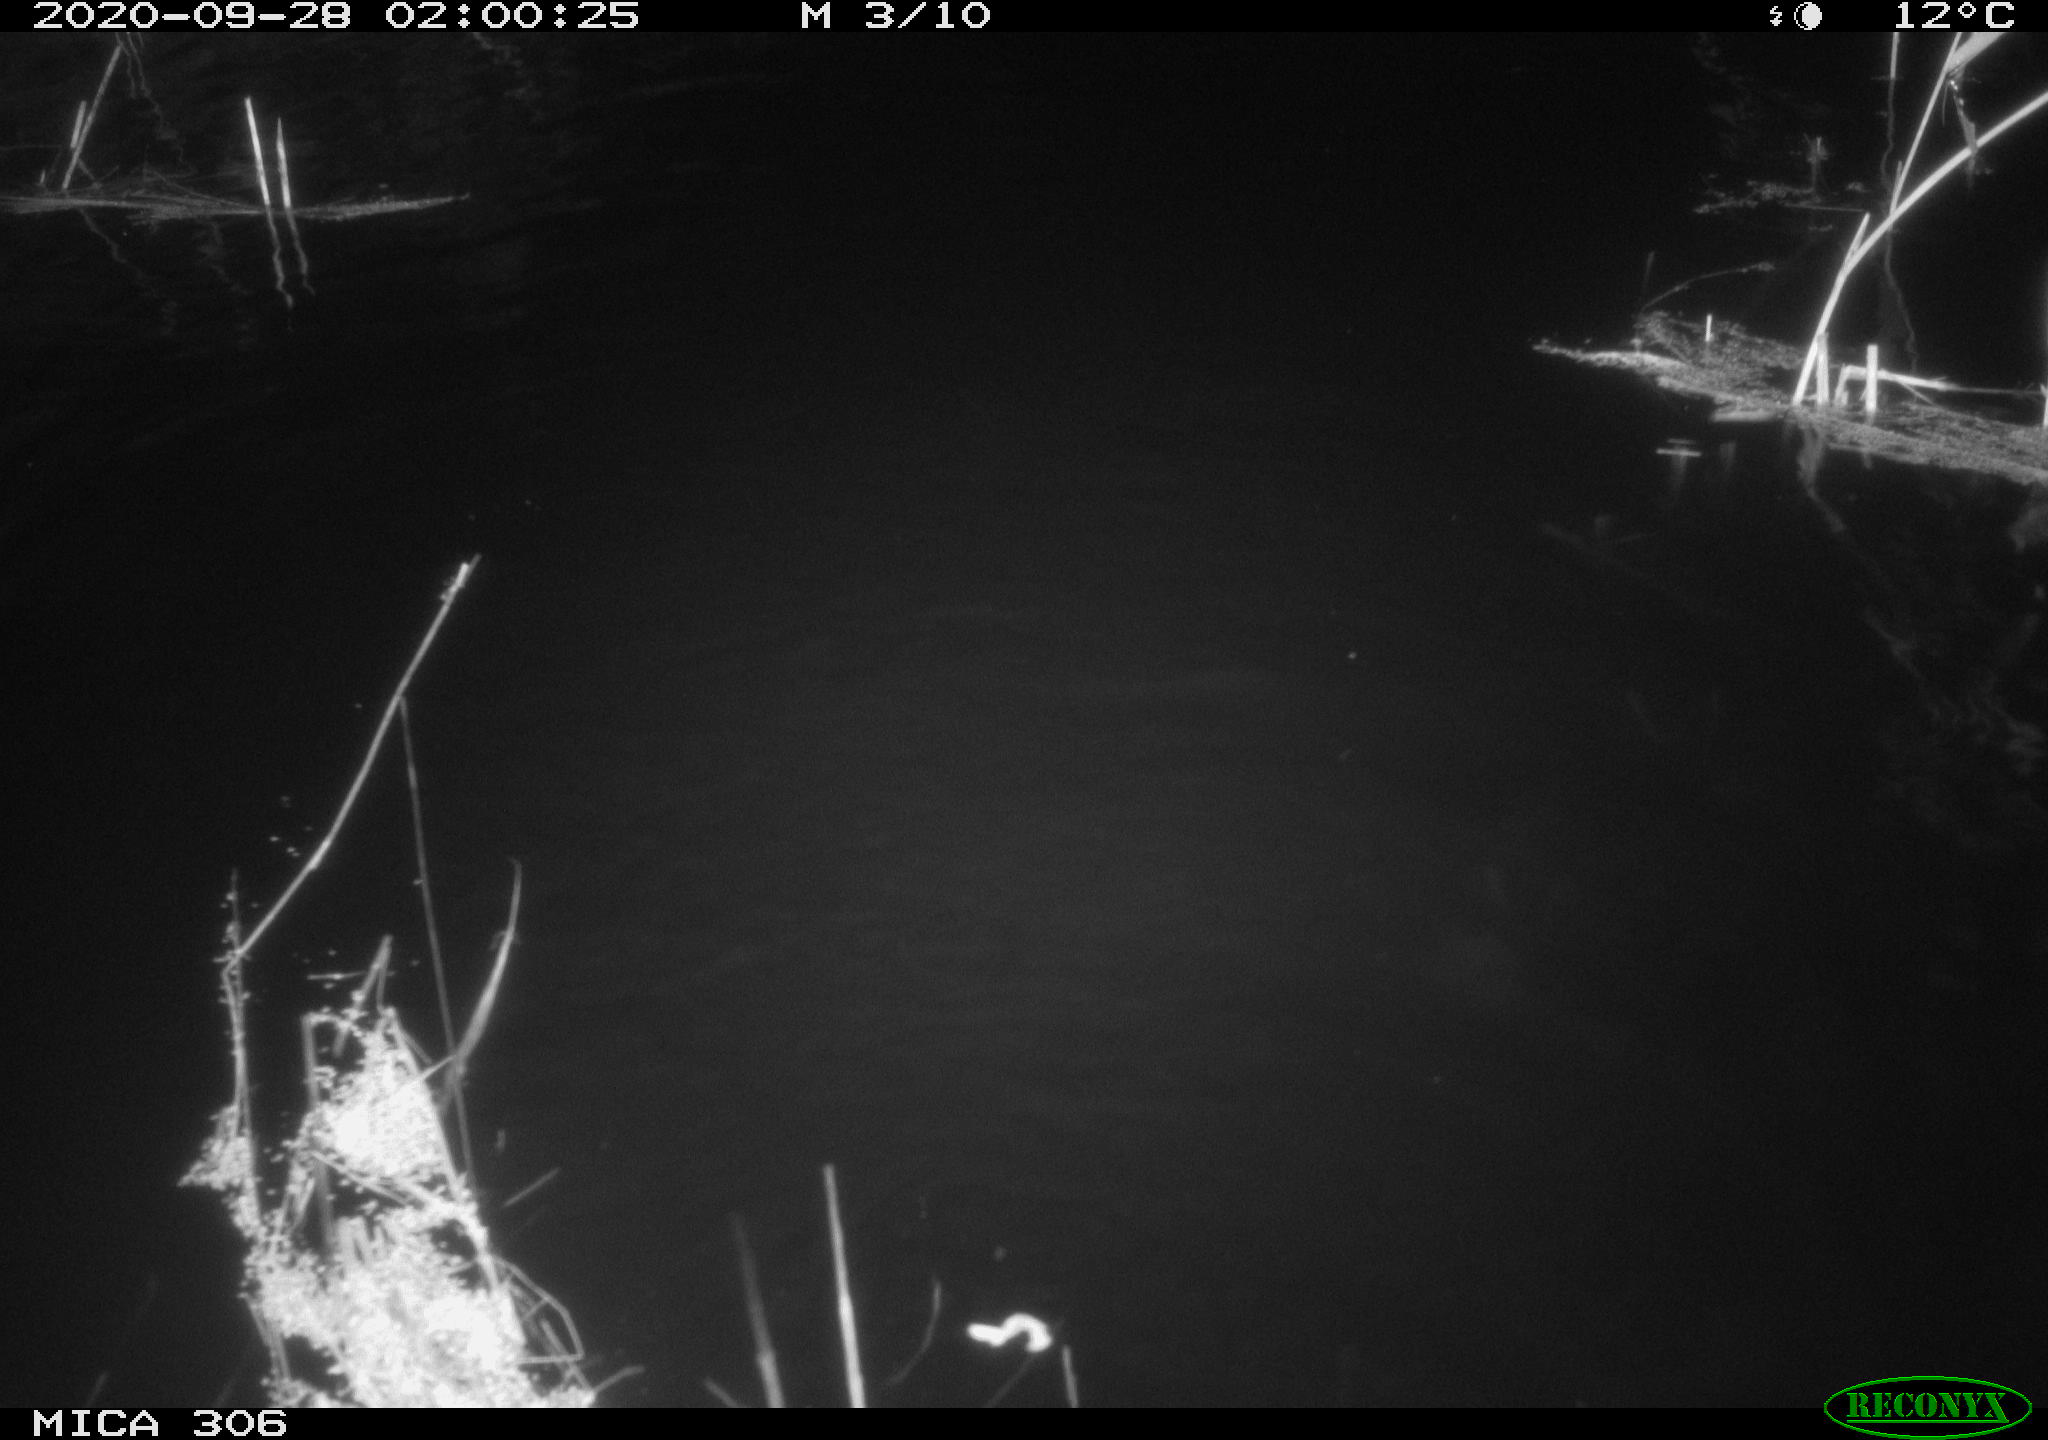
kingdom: Animalia
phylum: Chordata
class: Mammalia
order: Rodentia
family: Cricetidae
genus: Ondatra
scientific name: Ondatra zibethicus
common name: Muskrat
